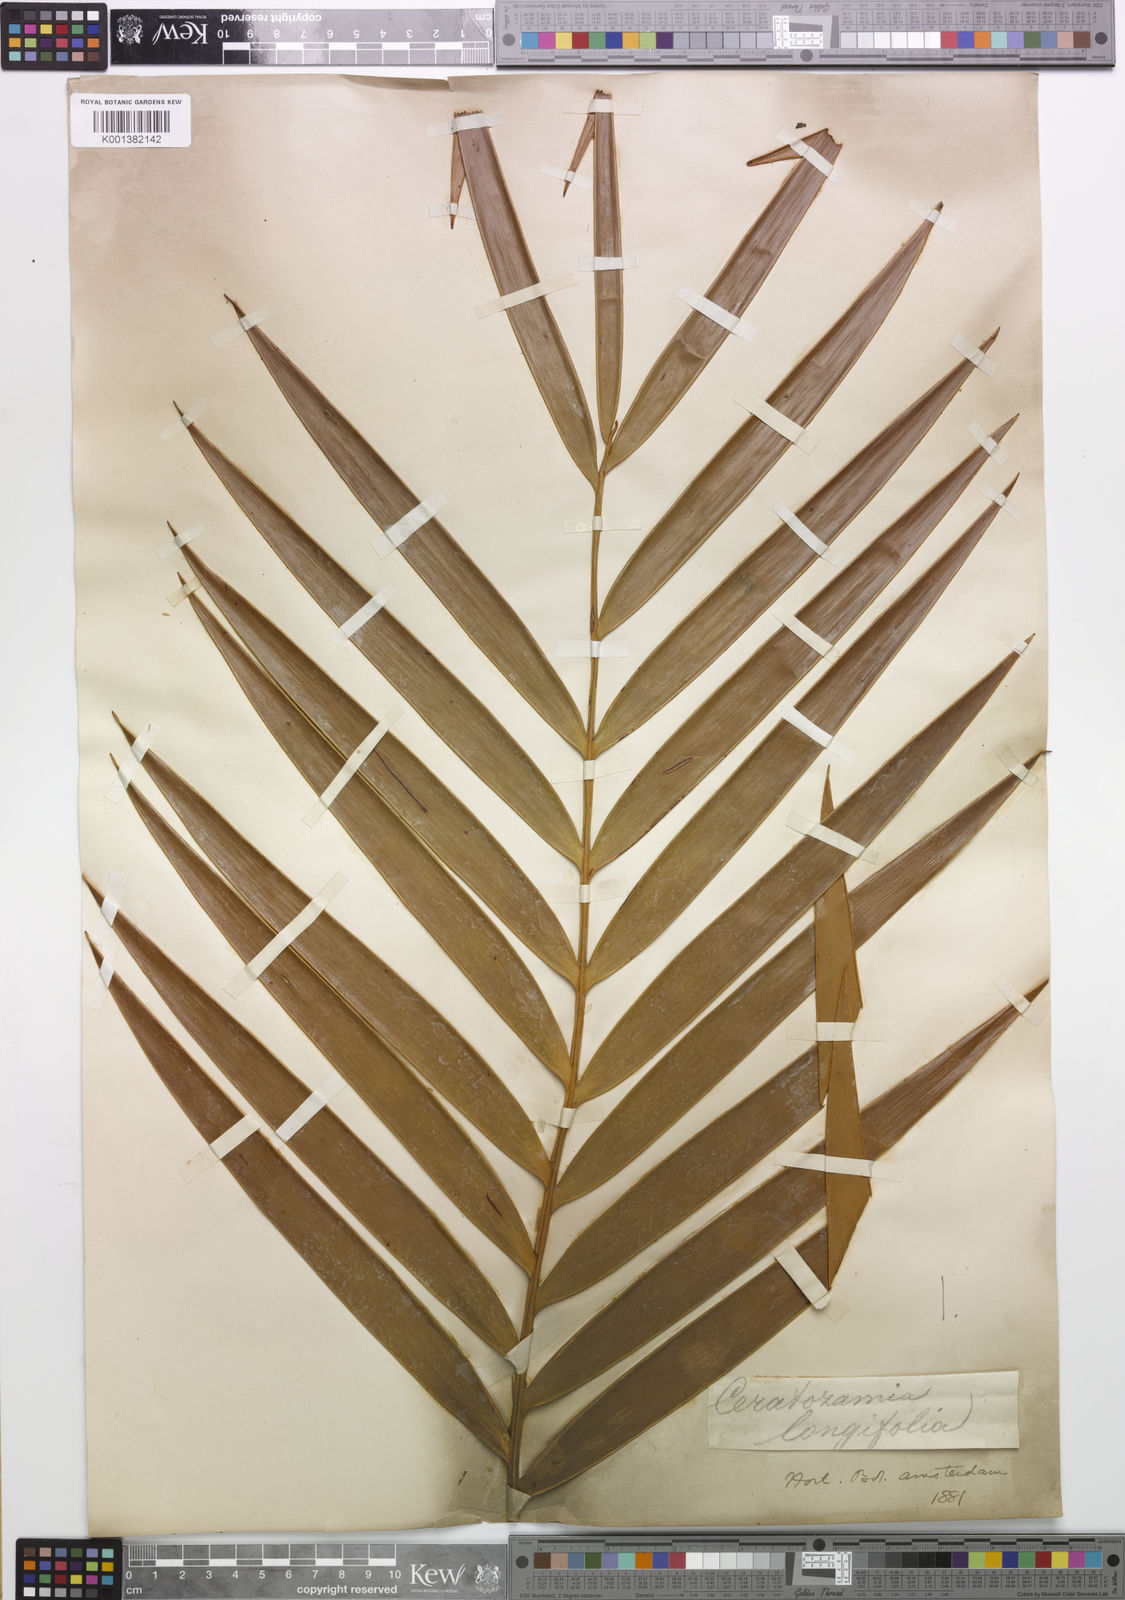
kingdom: Plantae
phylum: Tracheophyta
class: Cycadopsida
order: Cycadales
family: Zamiaceae
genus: Ceratozamia
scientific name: Ceratozamia mexicana
